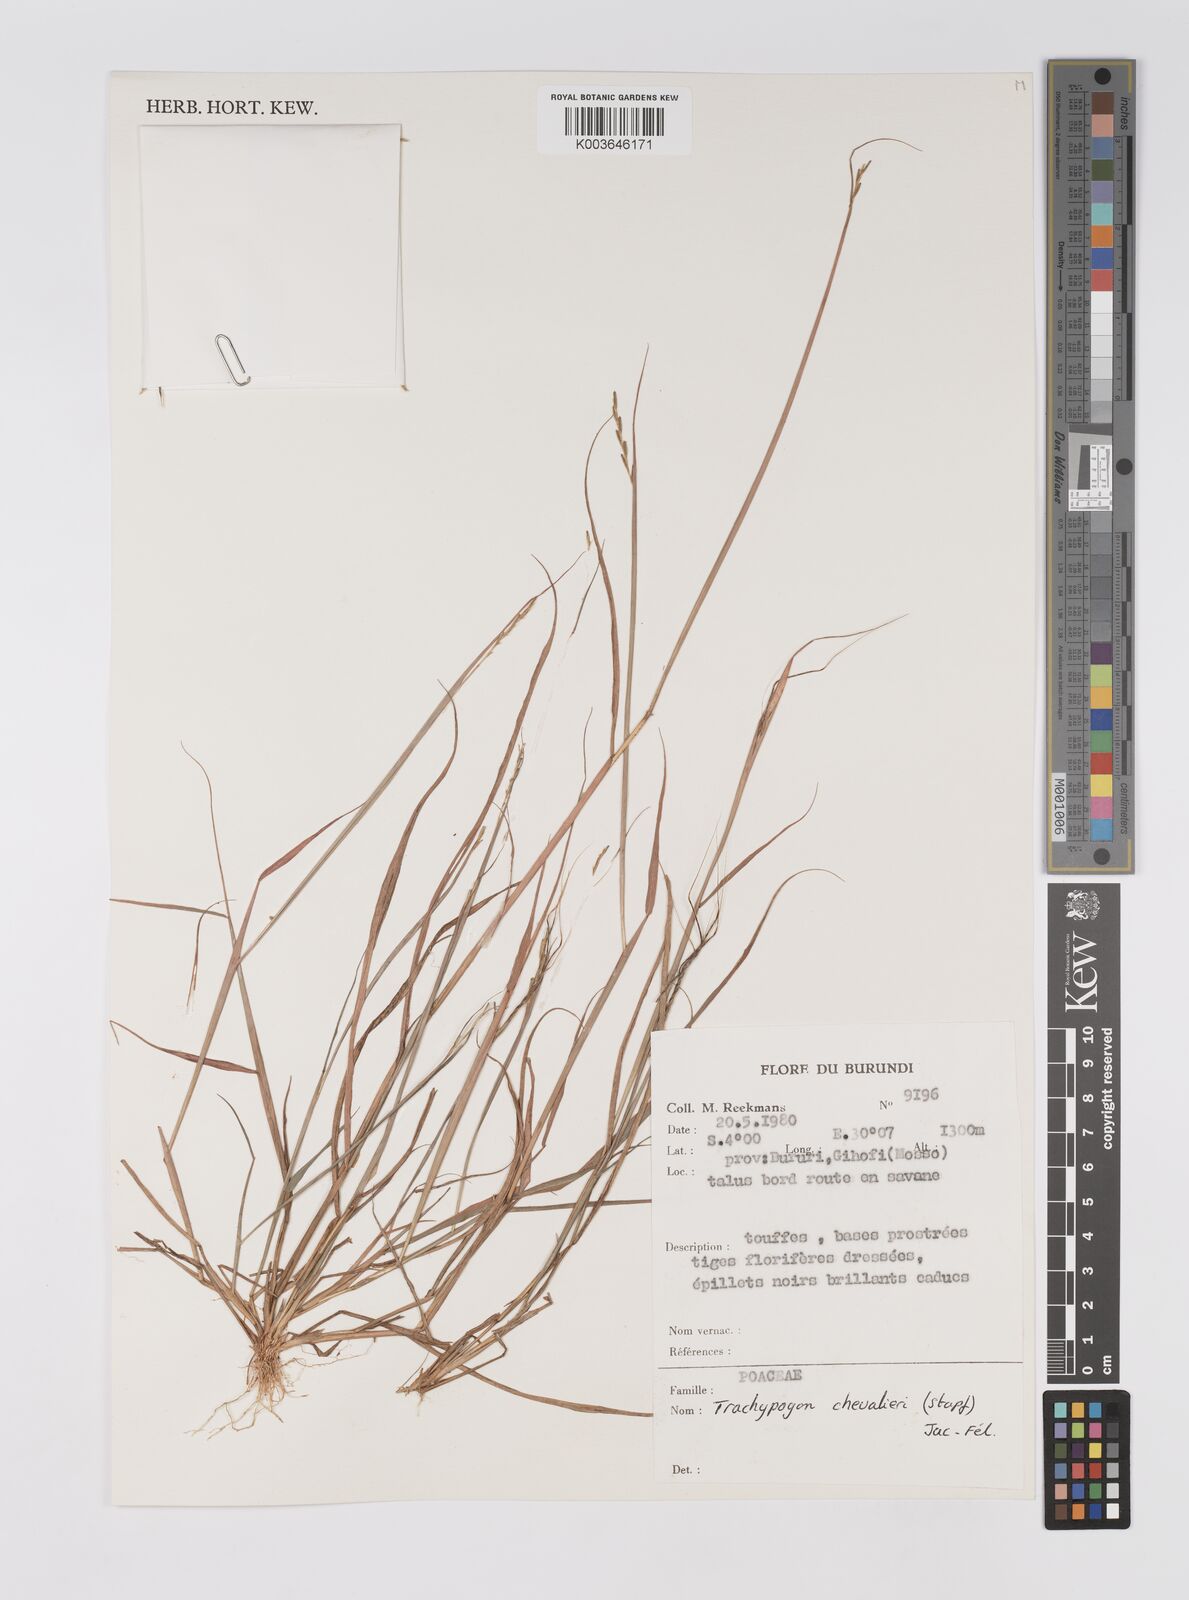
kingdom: Plantae
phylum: Tracheophyta
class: Liliopsida
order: Poales
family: Poaceae
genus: Trachypogon
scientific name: Trachypogon chevalieri
